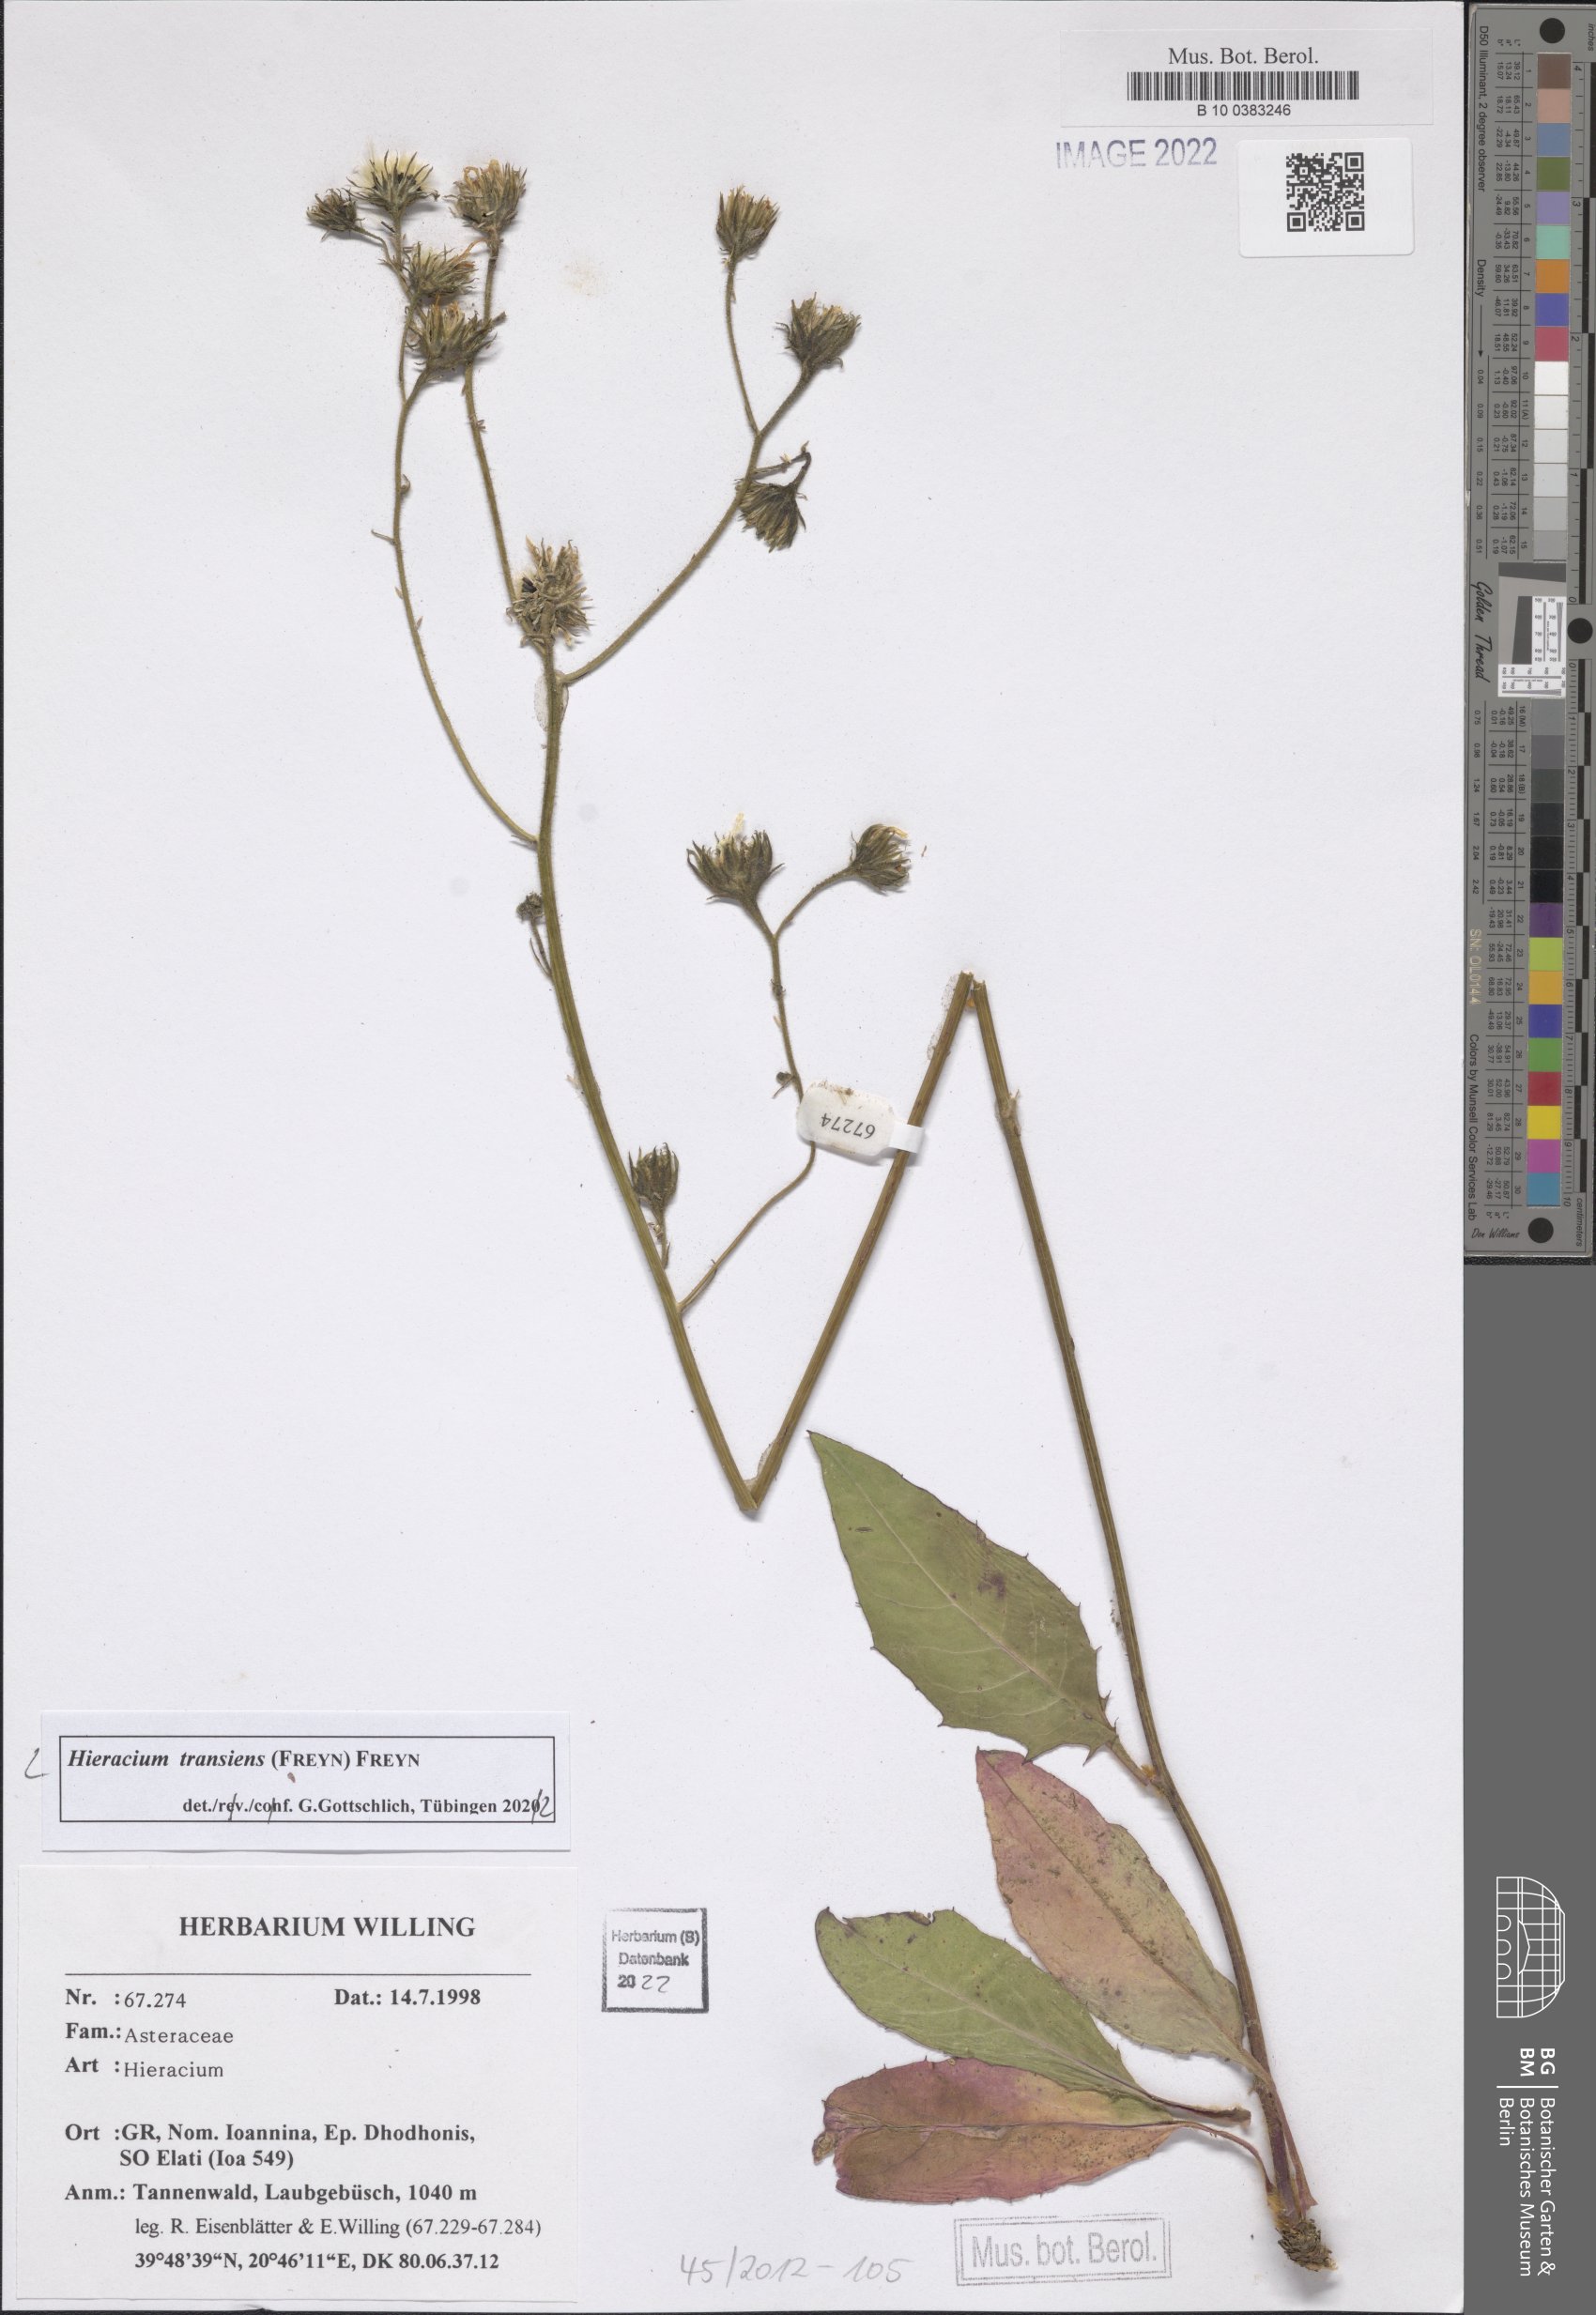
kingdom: Plantae
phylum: Tracheophyta
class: Magnoliopsida
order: Asterales
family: Asteraceae
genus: Hieracium
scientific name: Hieracium transiens
